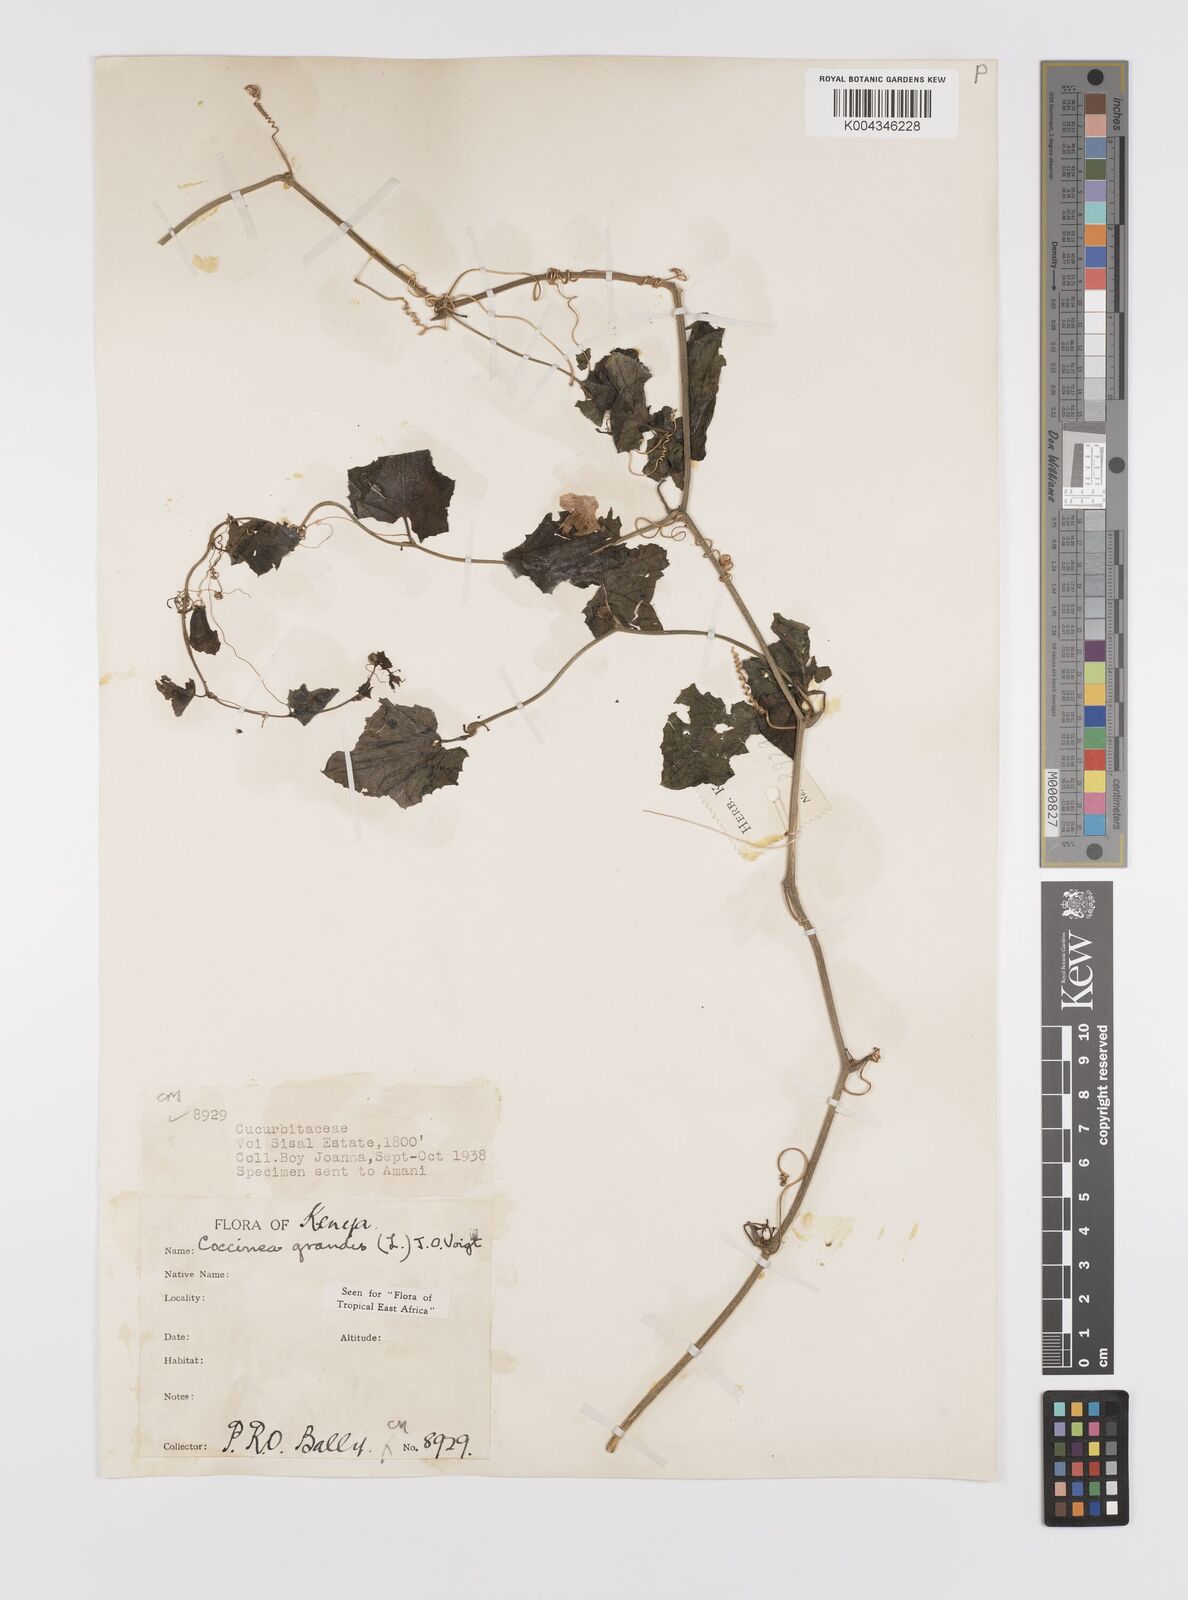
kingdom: Plantae
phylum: Tracheophyta
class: Magnoliopsida
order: Cucurbitales
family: Cucurbitaceae
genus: Coccinia
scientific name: Coccinia grandis
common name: Ivy gourd
